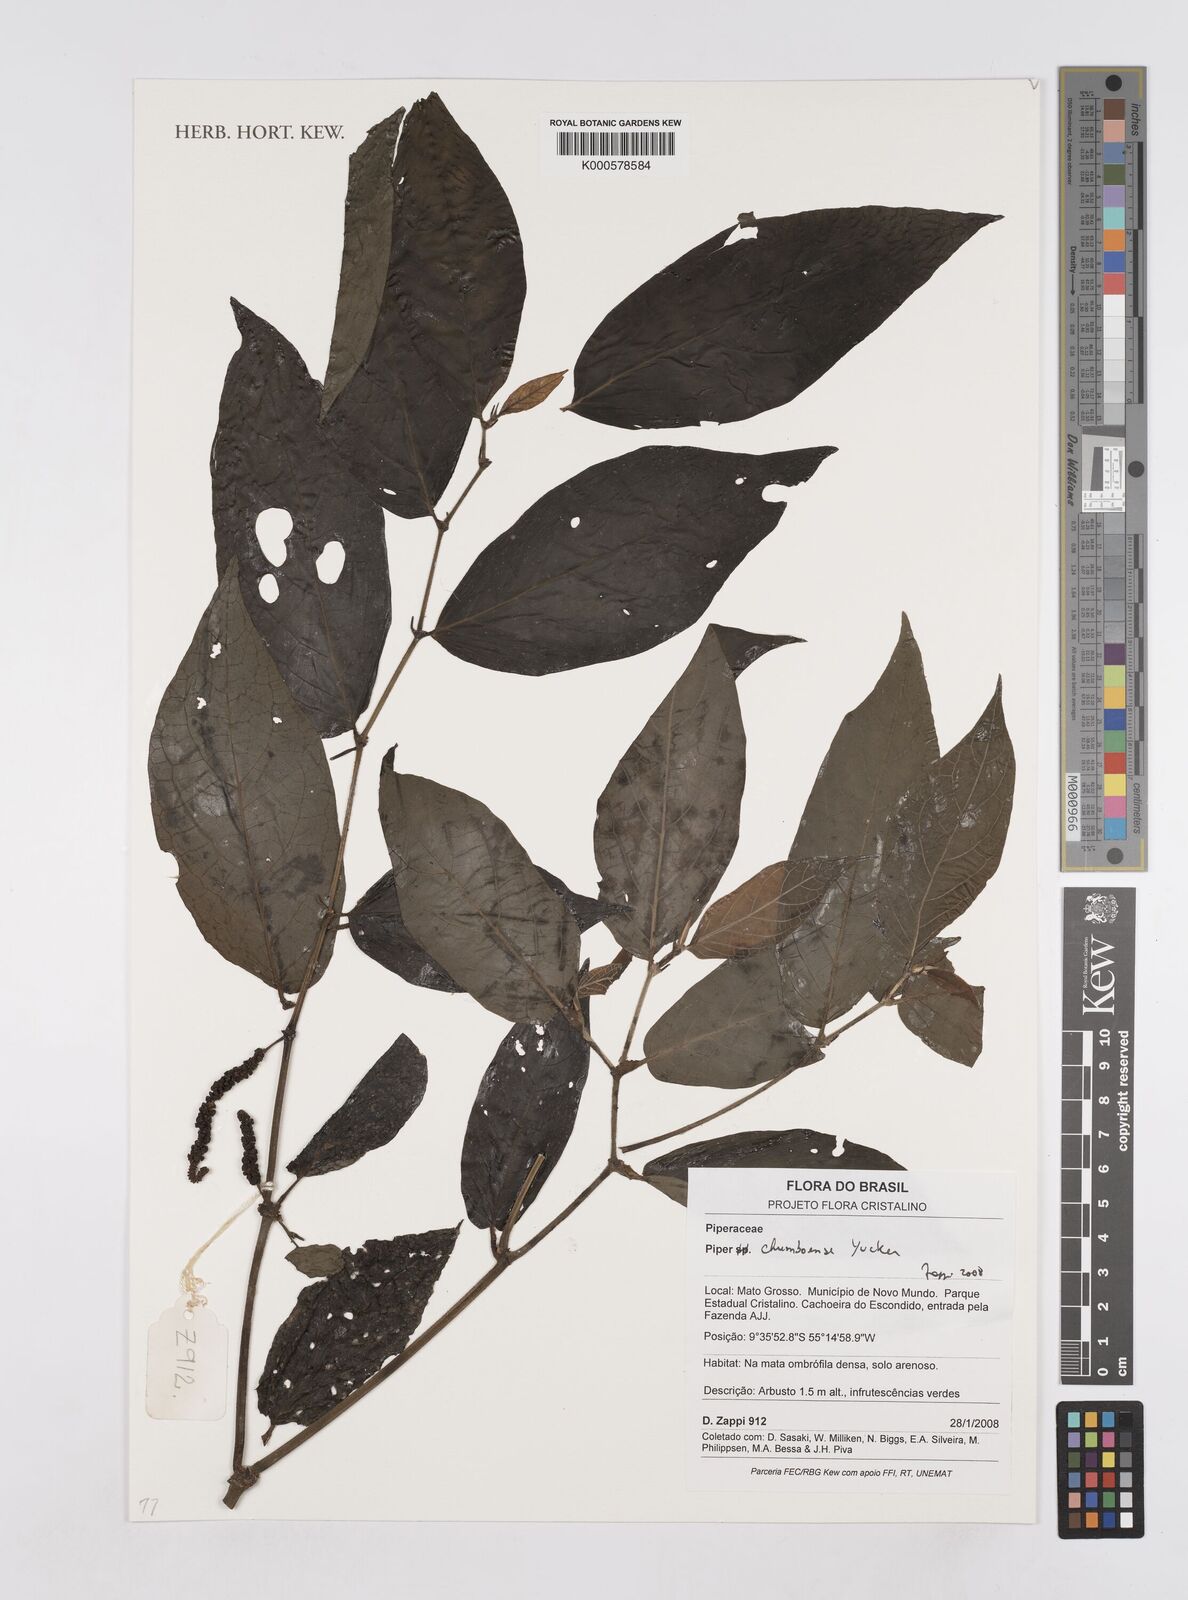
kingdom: Plantae
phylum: Tracheophyta
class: Magnoliopsida
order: Piperales
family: Piperaceae
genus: Piper
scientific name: Piper chumboense
